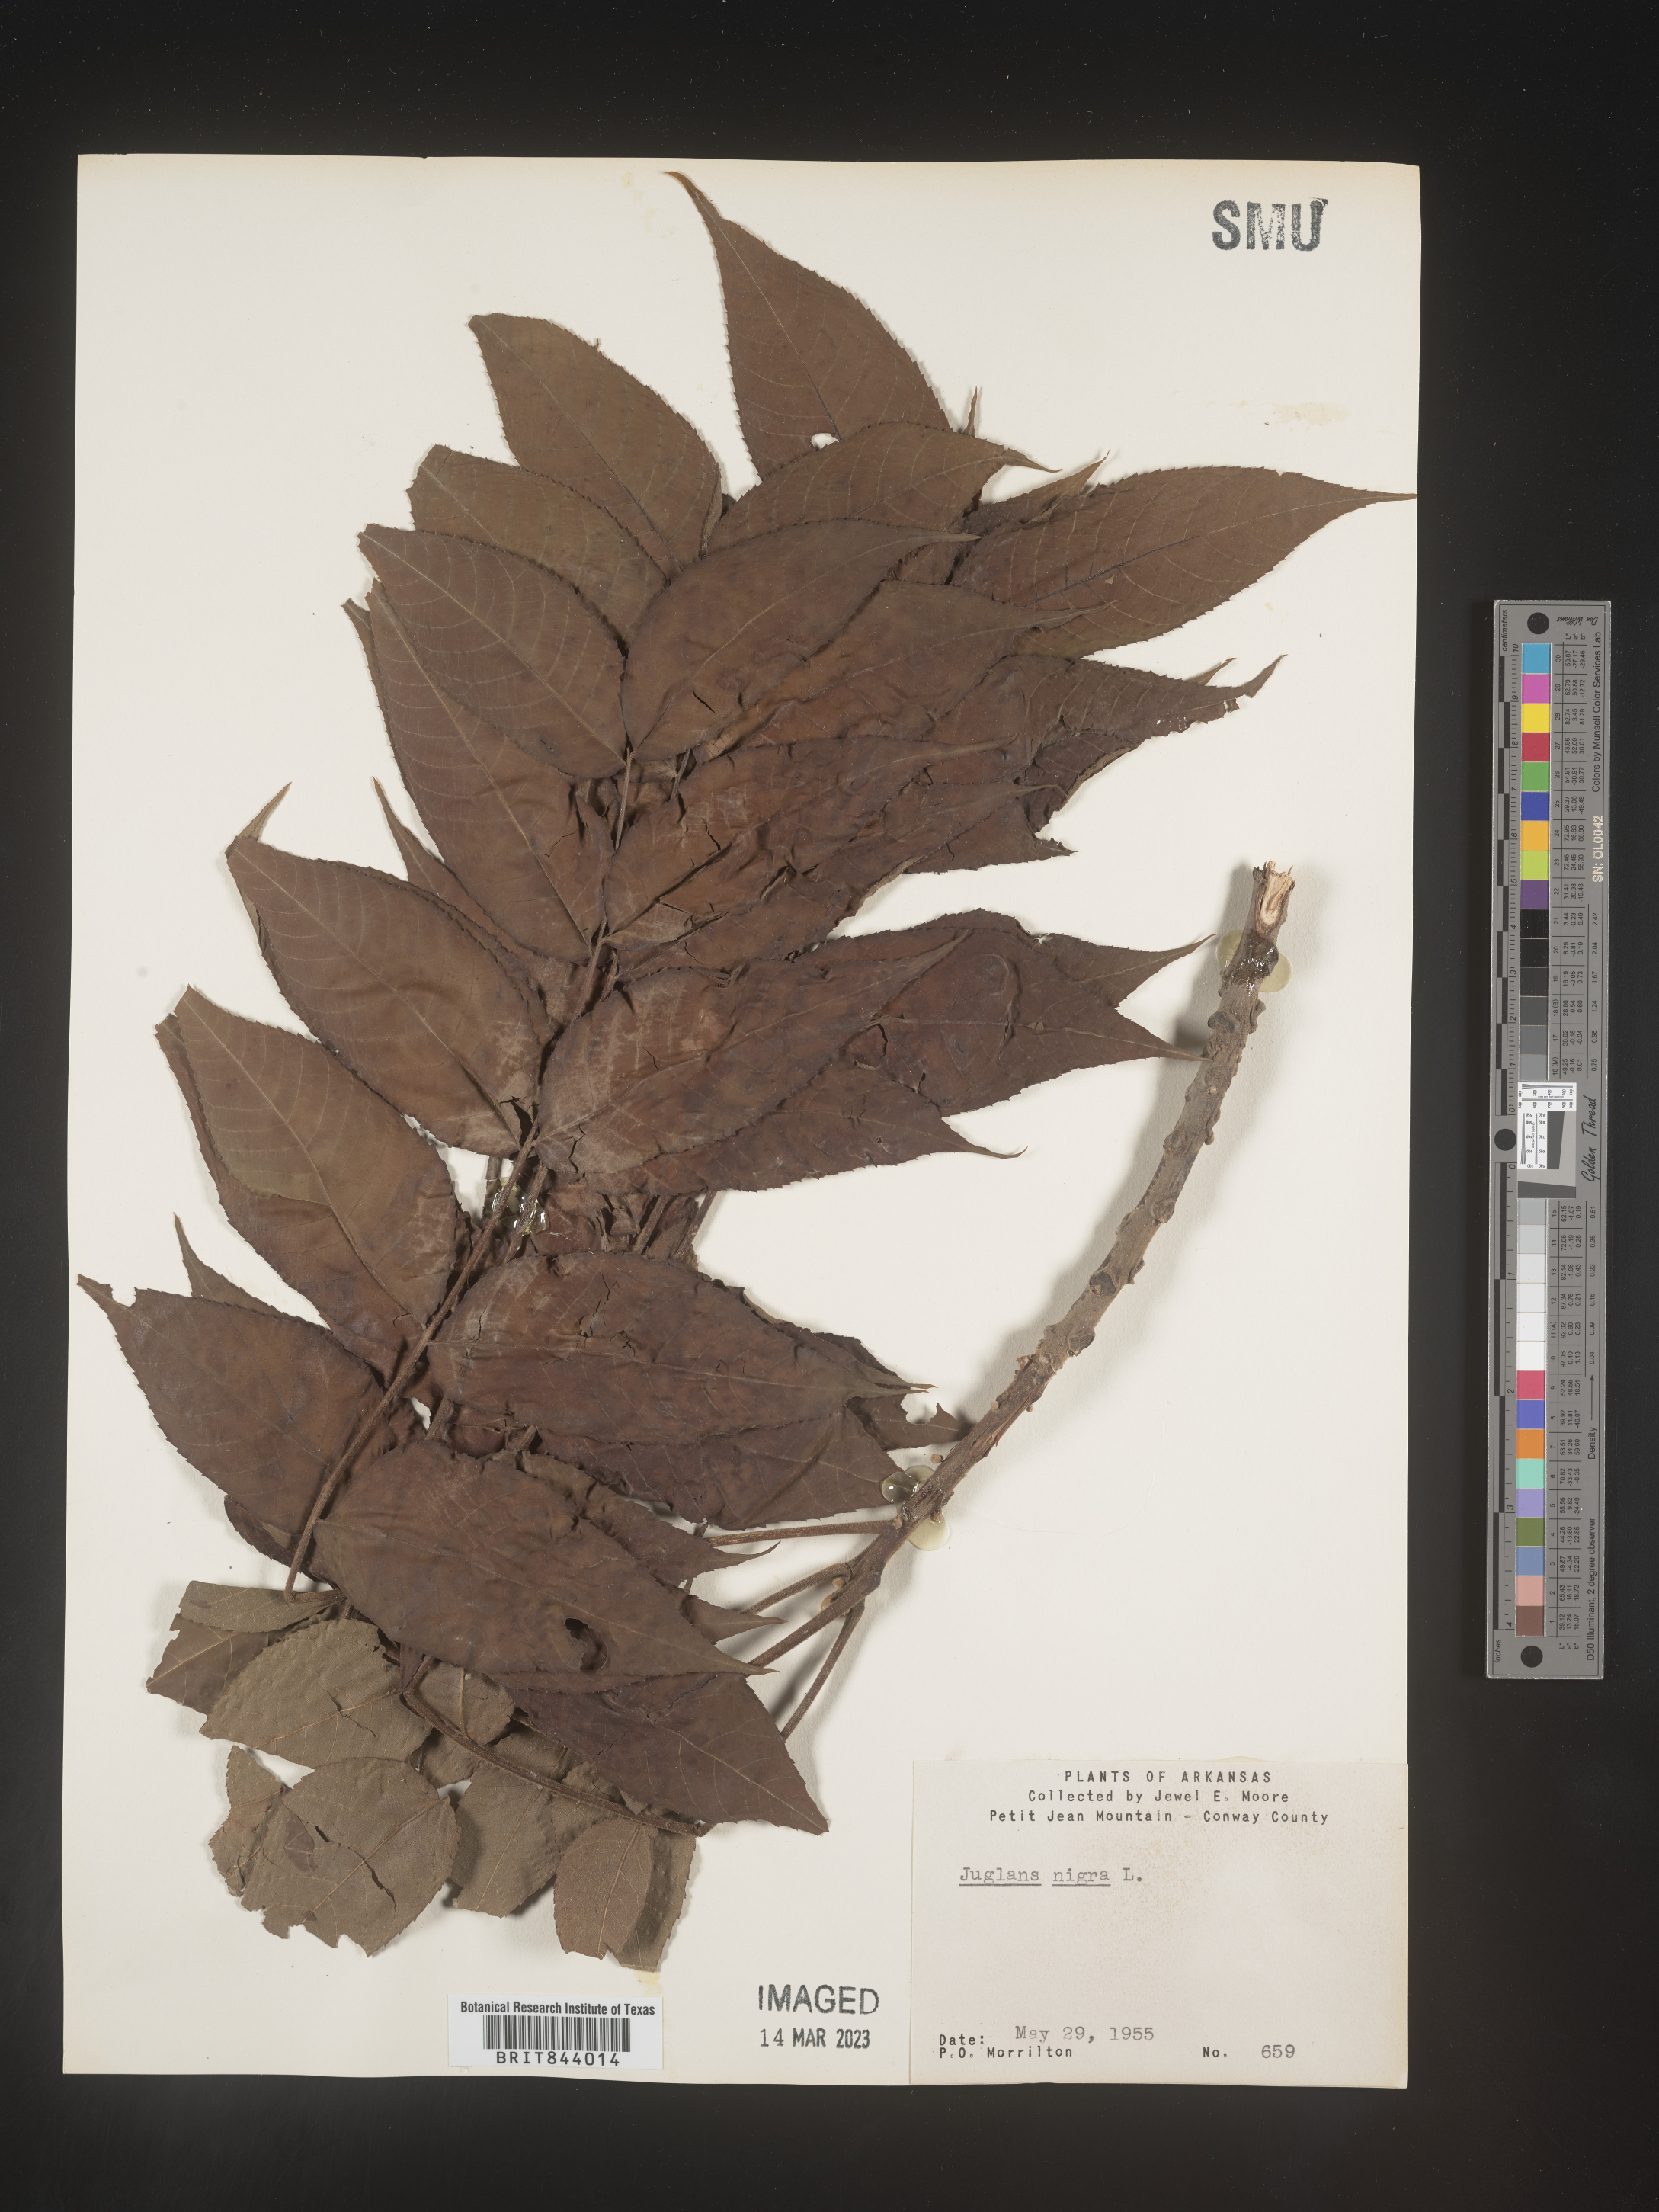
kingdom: Plantae
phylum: Tracheophyta
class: Magnoliopsida
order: Fagales
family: Juglandaceae
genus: Juglans
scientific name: Juglans nigra
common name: Black walnut
